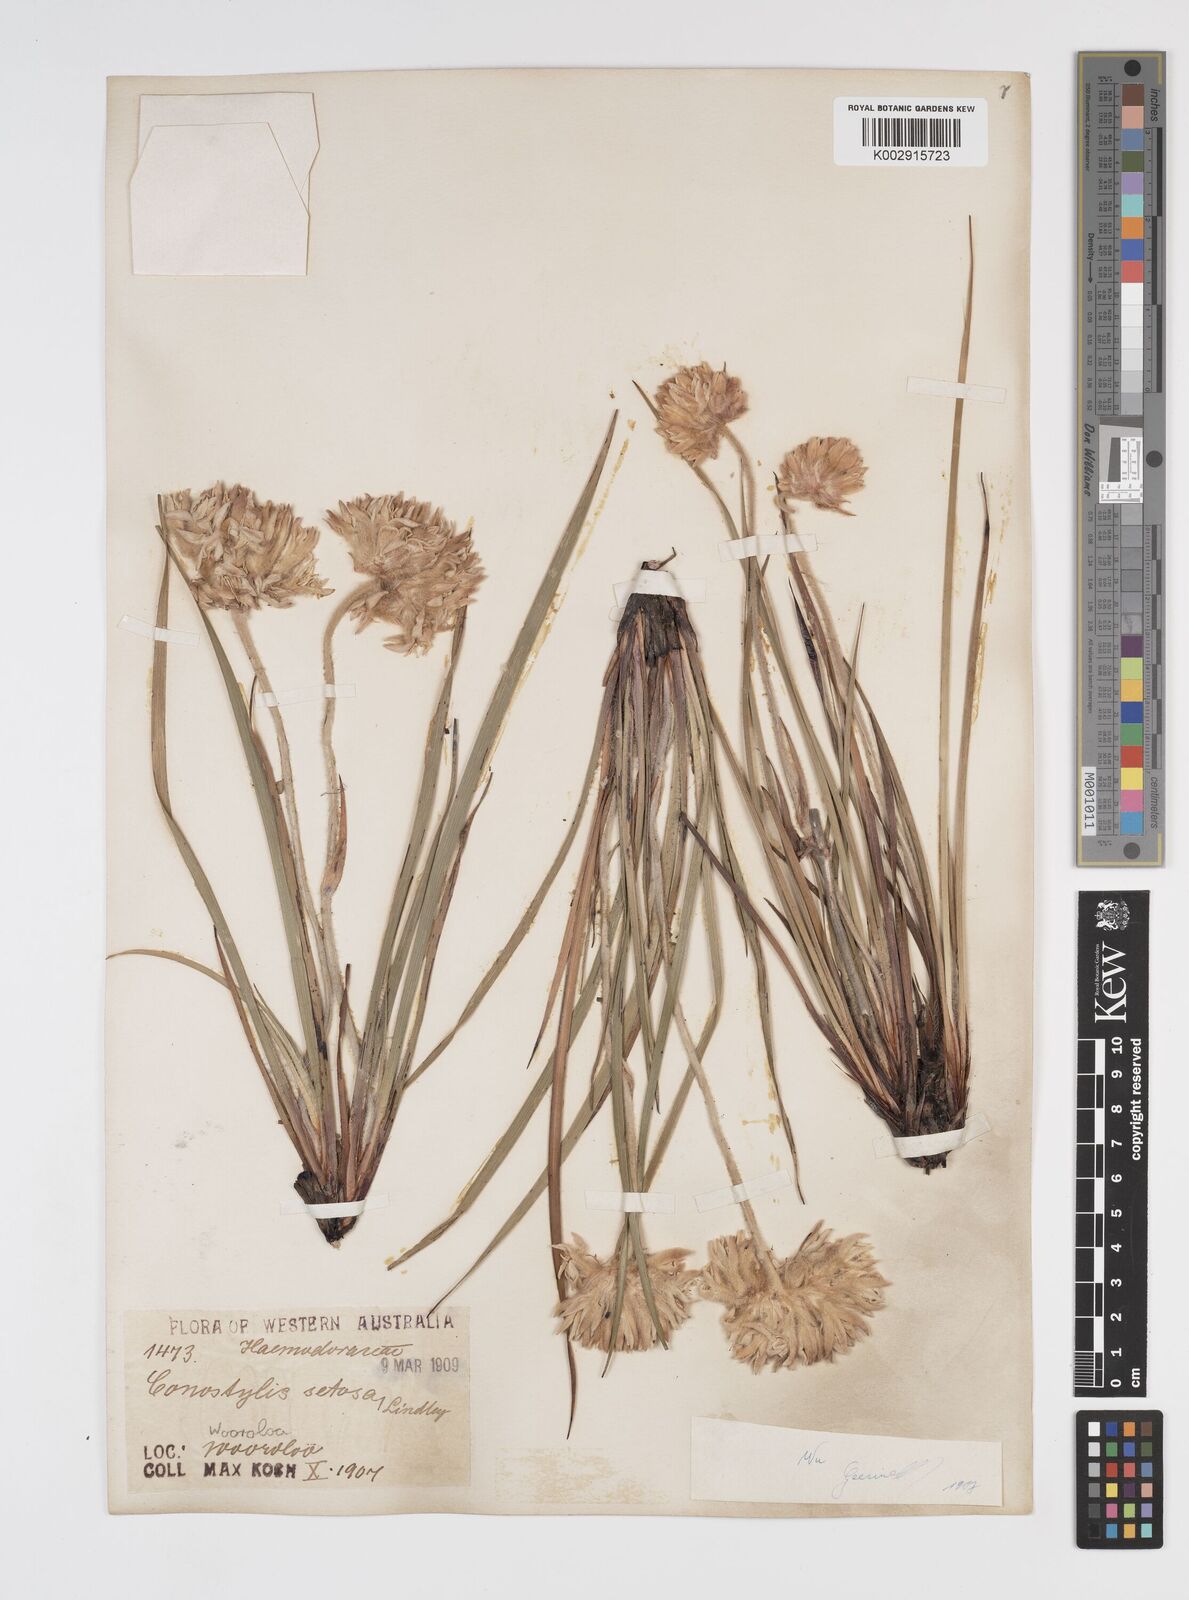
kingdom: Plantae
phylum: Tracheophyta
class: Liliopsida
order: Commelinales
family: Haemodoraceae
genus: Conostylis
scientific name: Conostylis setosa
